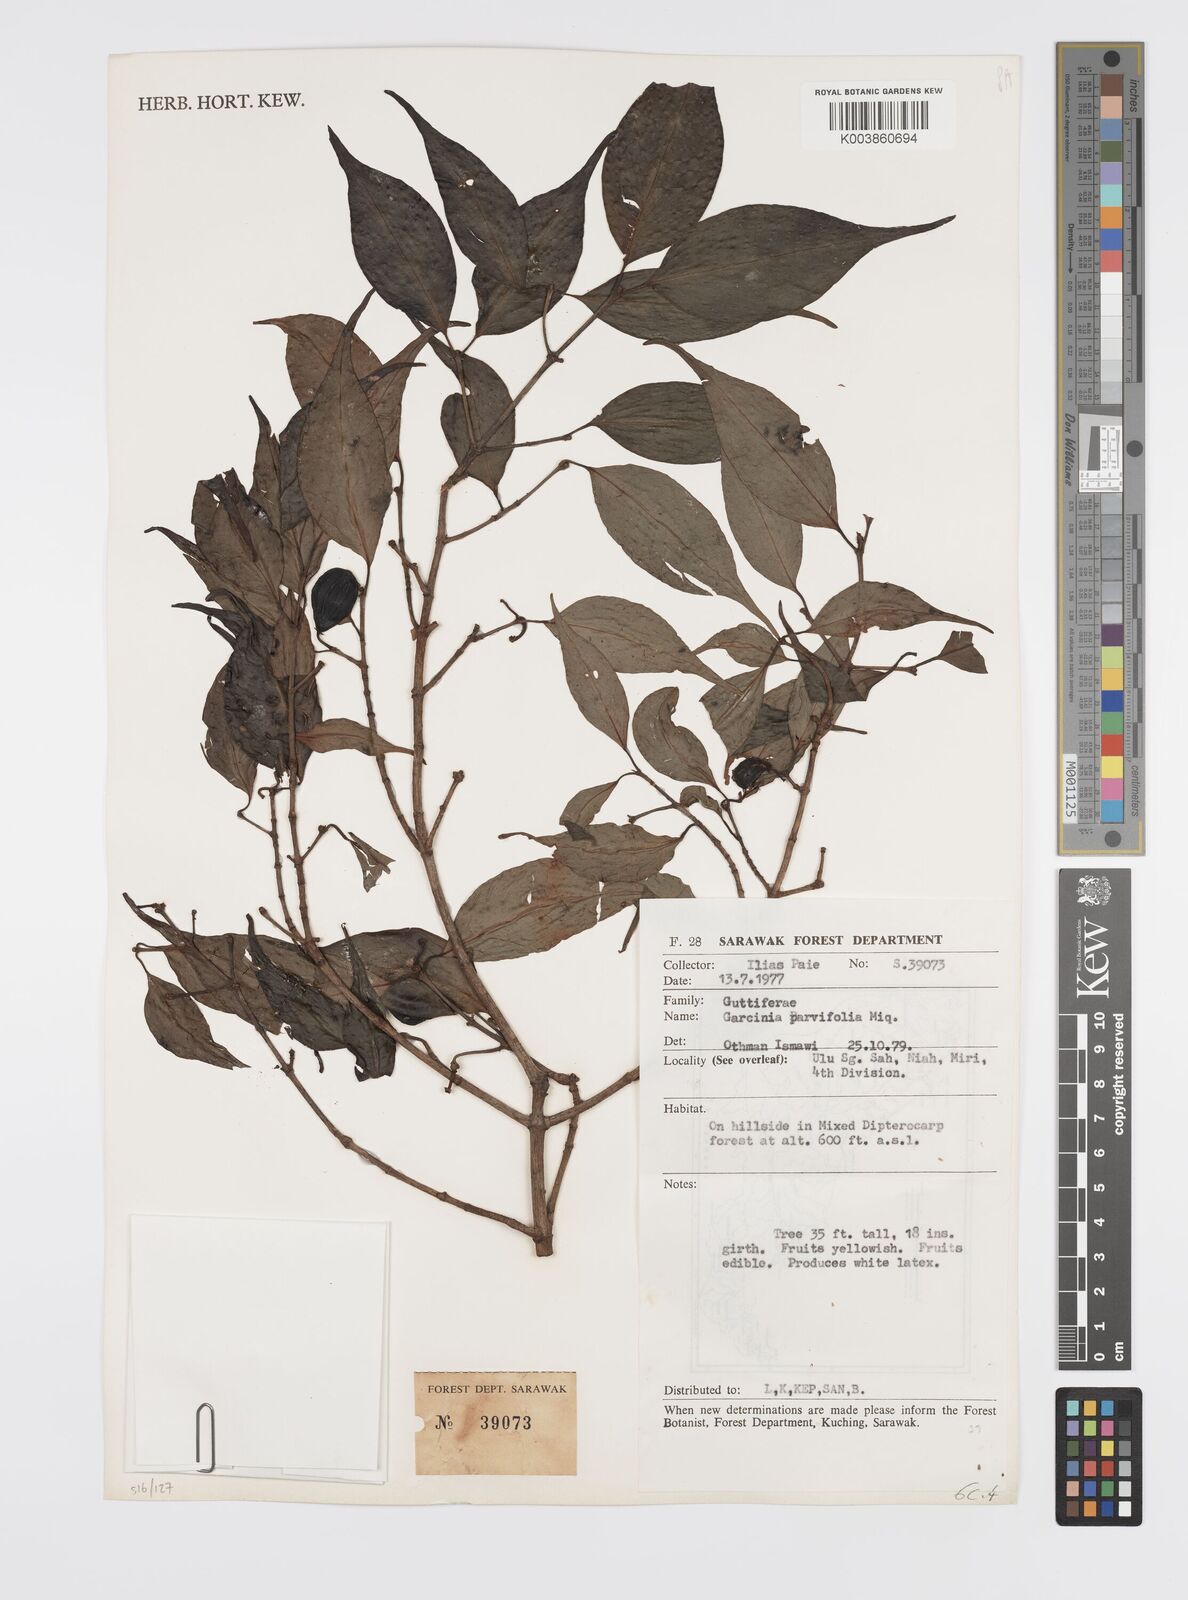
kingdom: Plantae
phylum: Tracheophyta
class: Magnoliopsida
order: Malpighiales
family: Clusiaceae
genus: Garcinia
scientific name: Garcinia parvifolia
